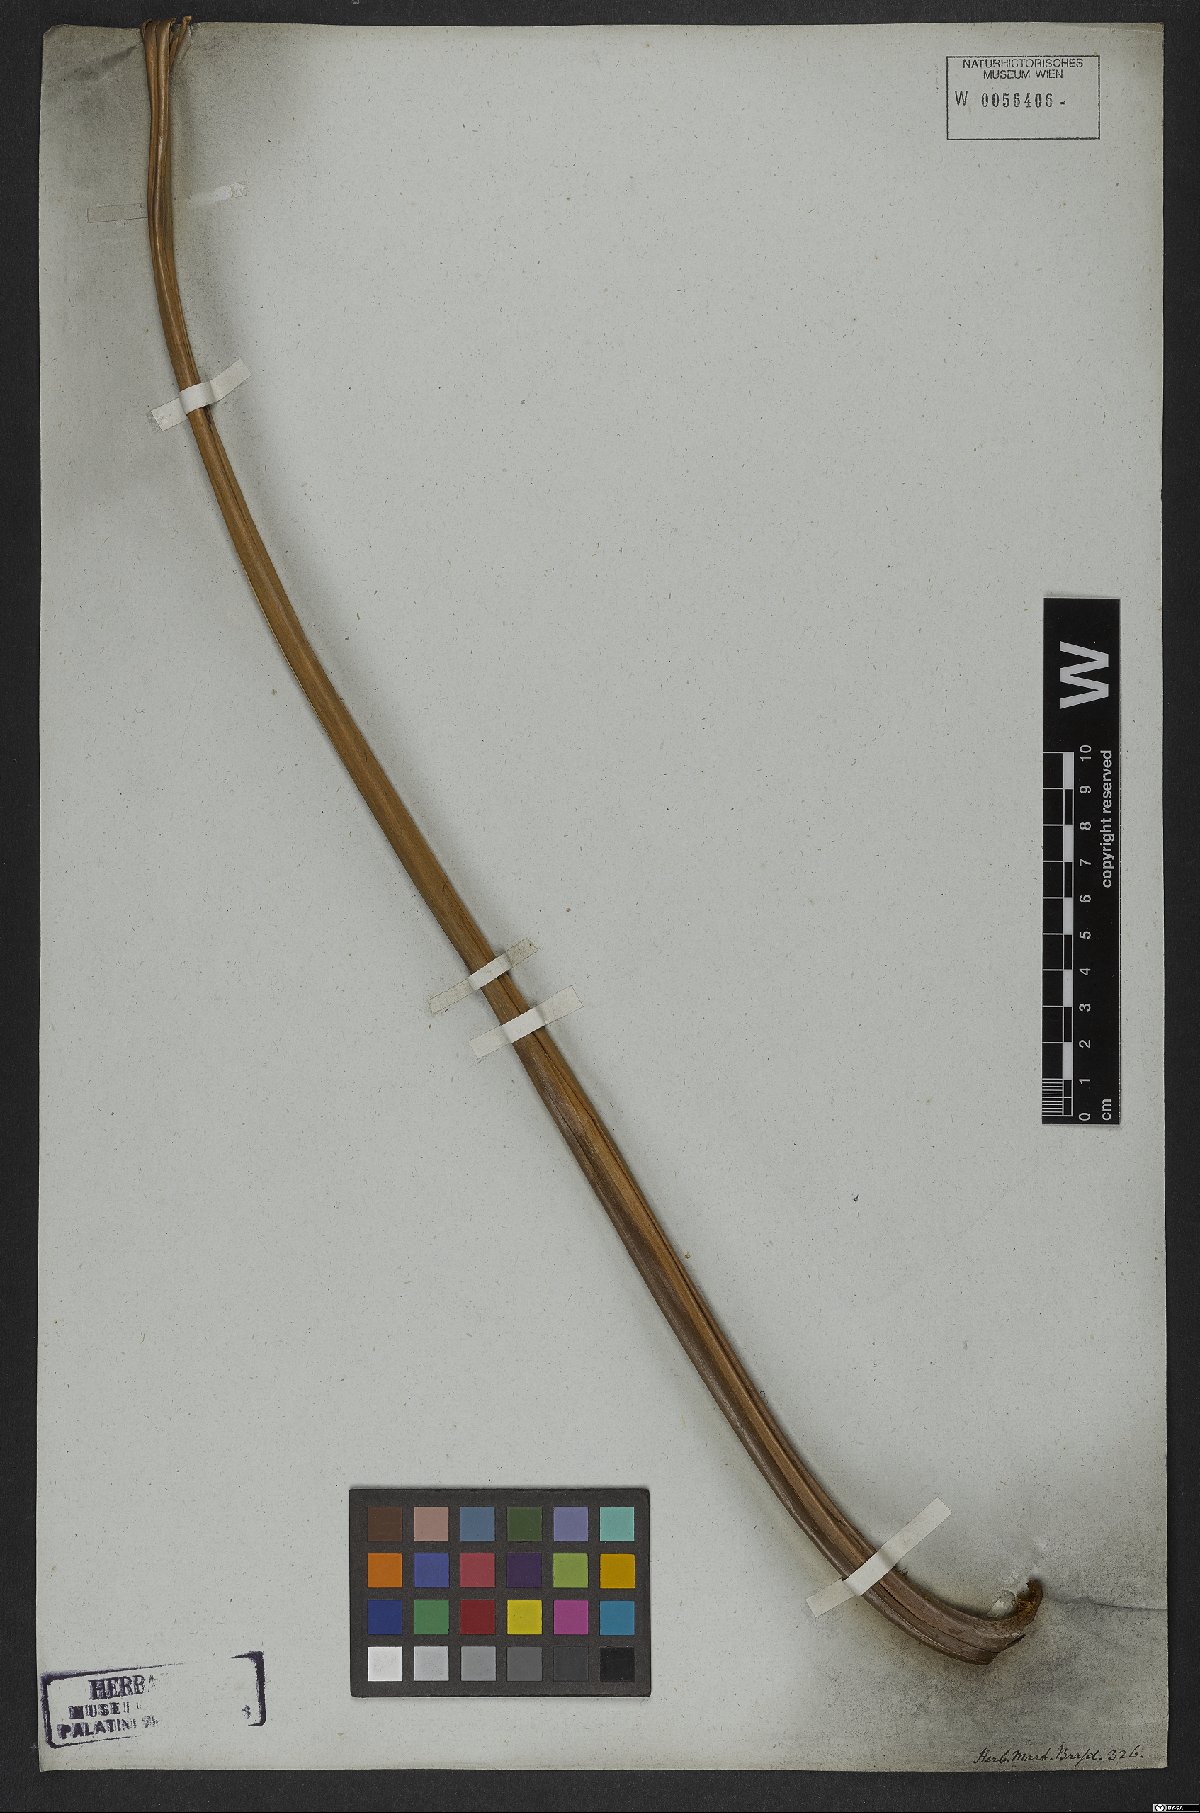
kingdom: Plantae
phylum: Tracheophyta
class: Polypodiopsida
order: Polypodiales
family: Dryopteridaceae
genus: Polystichum
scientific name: Polystichum
